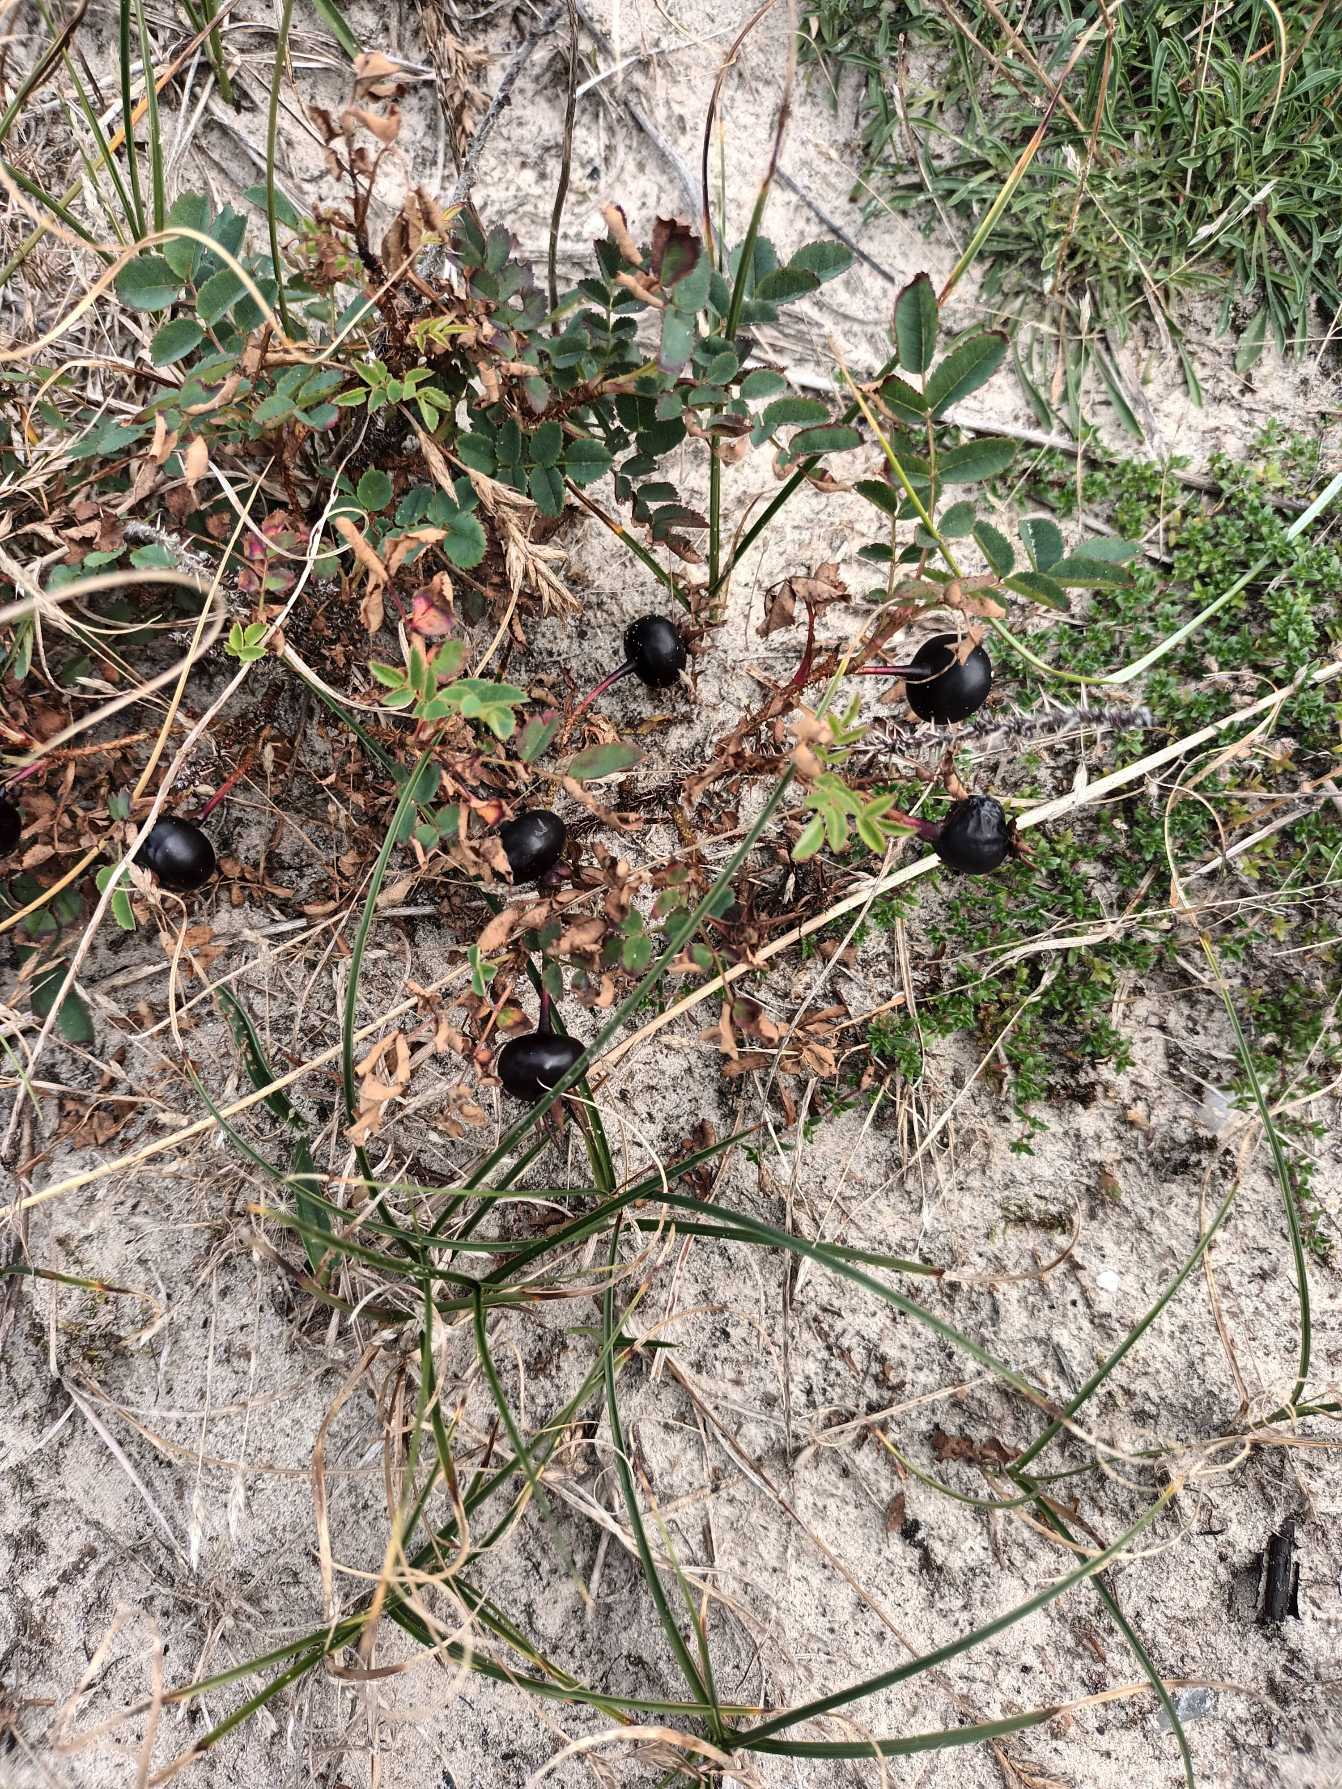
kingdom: Plantae
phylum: Tracheophyta
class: Magnoliopsida
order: Rosales
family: Rosaceae
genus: Rosa
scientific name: Rosa spinosissima
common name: Klit-rose
